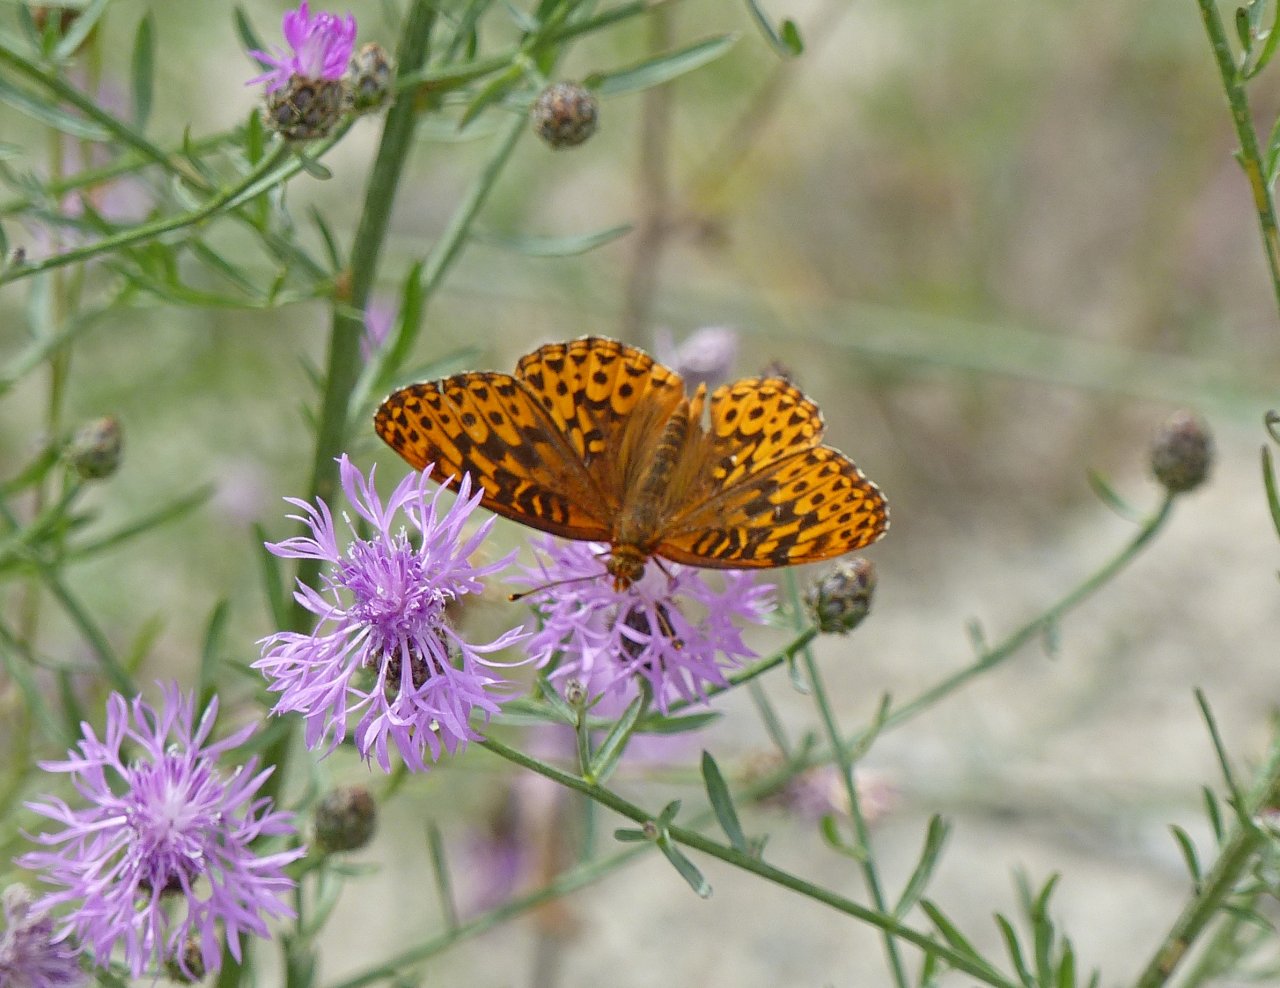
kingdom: Animalia
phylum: Arthropoda
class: Insecta
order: Lepidoptera
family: Nymphalidae
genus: Speyeria
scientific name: Speyeria hydaspe
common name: Hydaspe Fritillary
